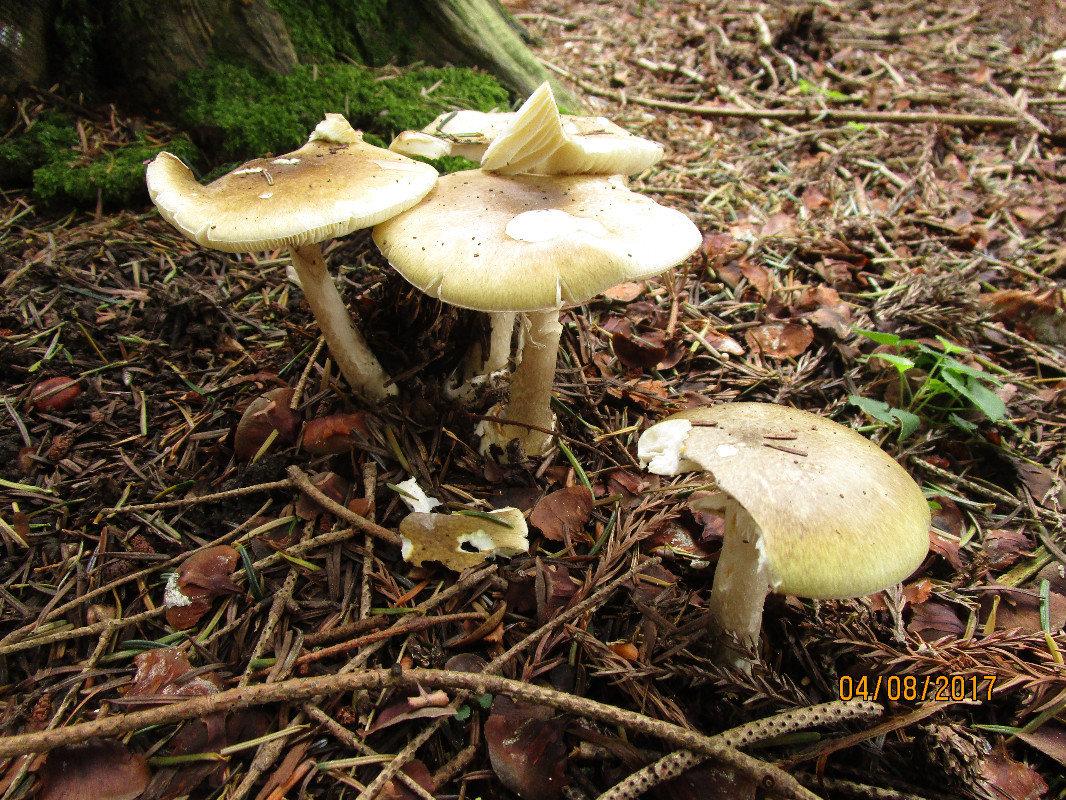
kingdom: Fungi
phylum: Basidiomycota
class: Agaricomycetes
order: Agaricales
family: Amanitaceae
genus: Amanita
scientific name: Amanita phalloides
